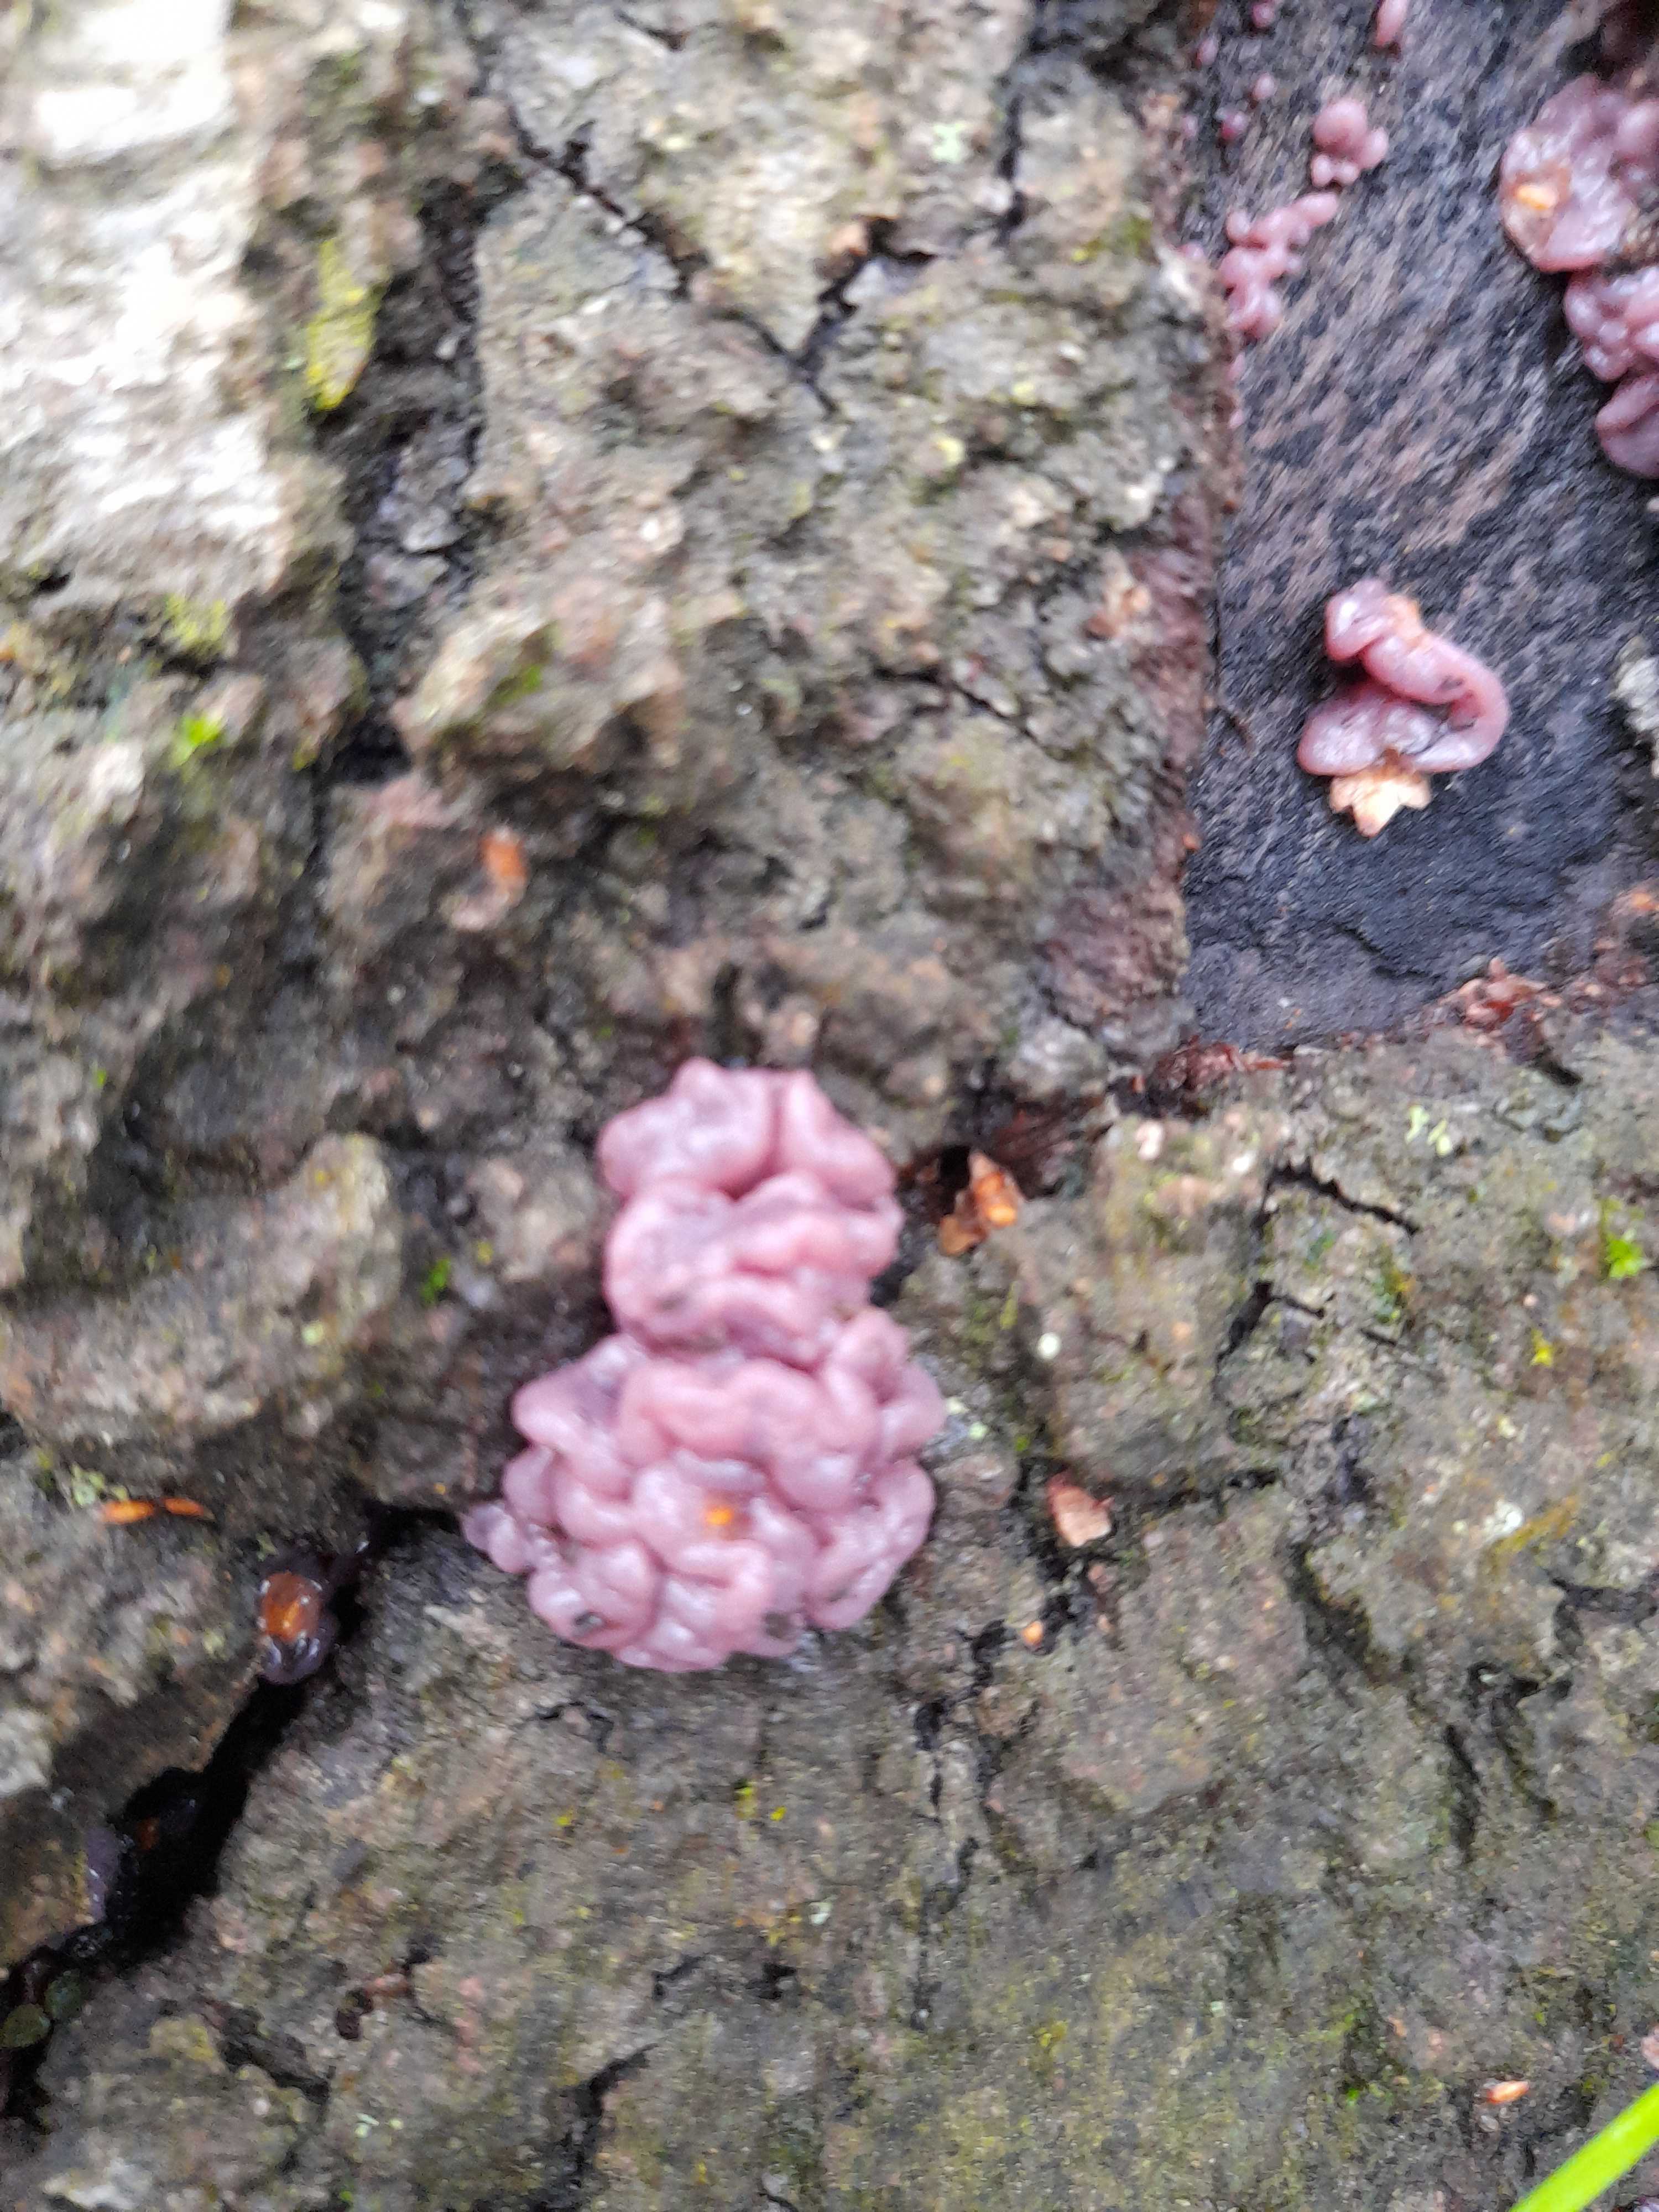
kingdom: Fungi
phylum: Ascomycota
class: Leotiomycetes
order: Helotiales
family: Gelatinodiscaceae
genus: Ascocoryne
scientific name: Ascocoryne sarcoides
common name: rødlilla sejskive
